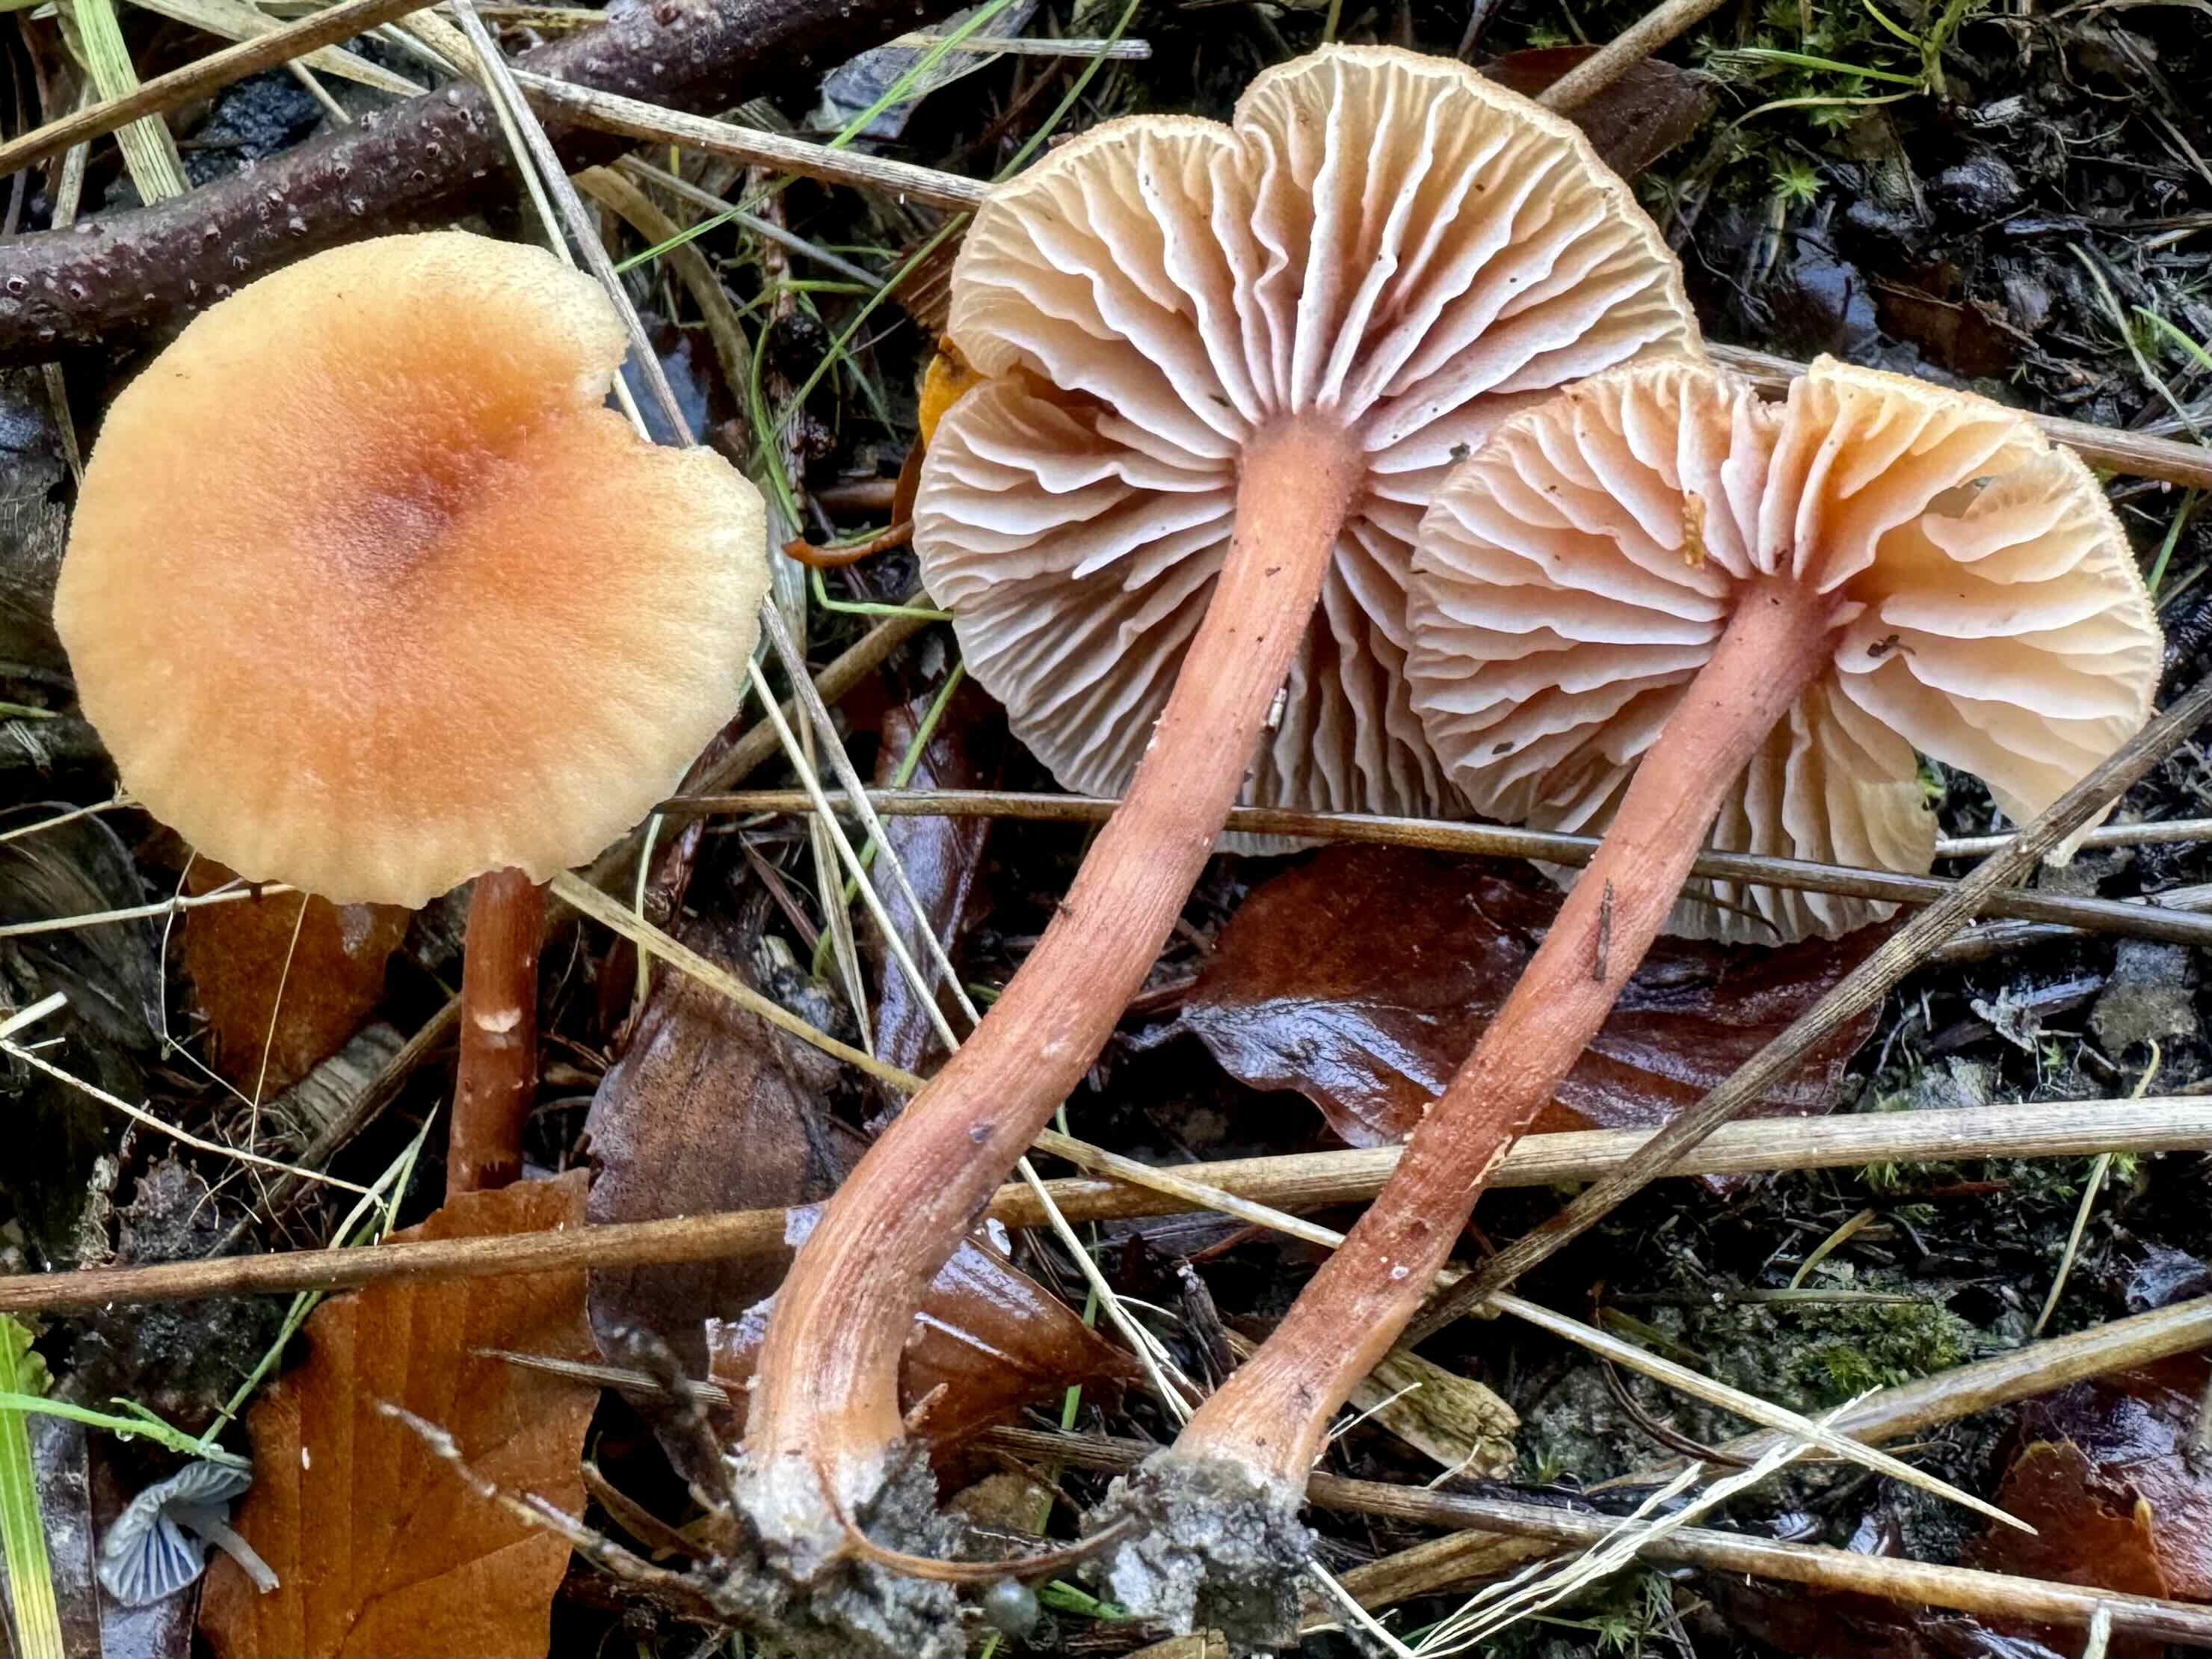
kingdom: Fungi
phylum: Basidiomycota
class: Agaricomycetes
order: Agaricales
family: Hydnangiaceae
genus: Laccaria
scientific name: Laccaria laccata
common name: rød ametysthat
